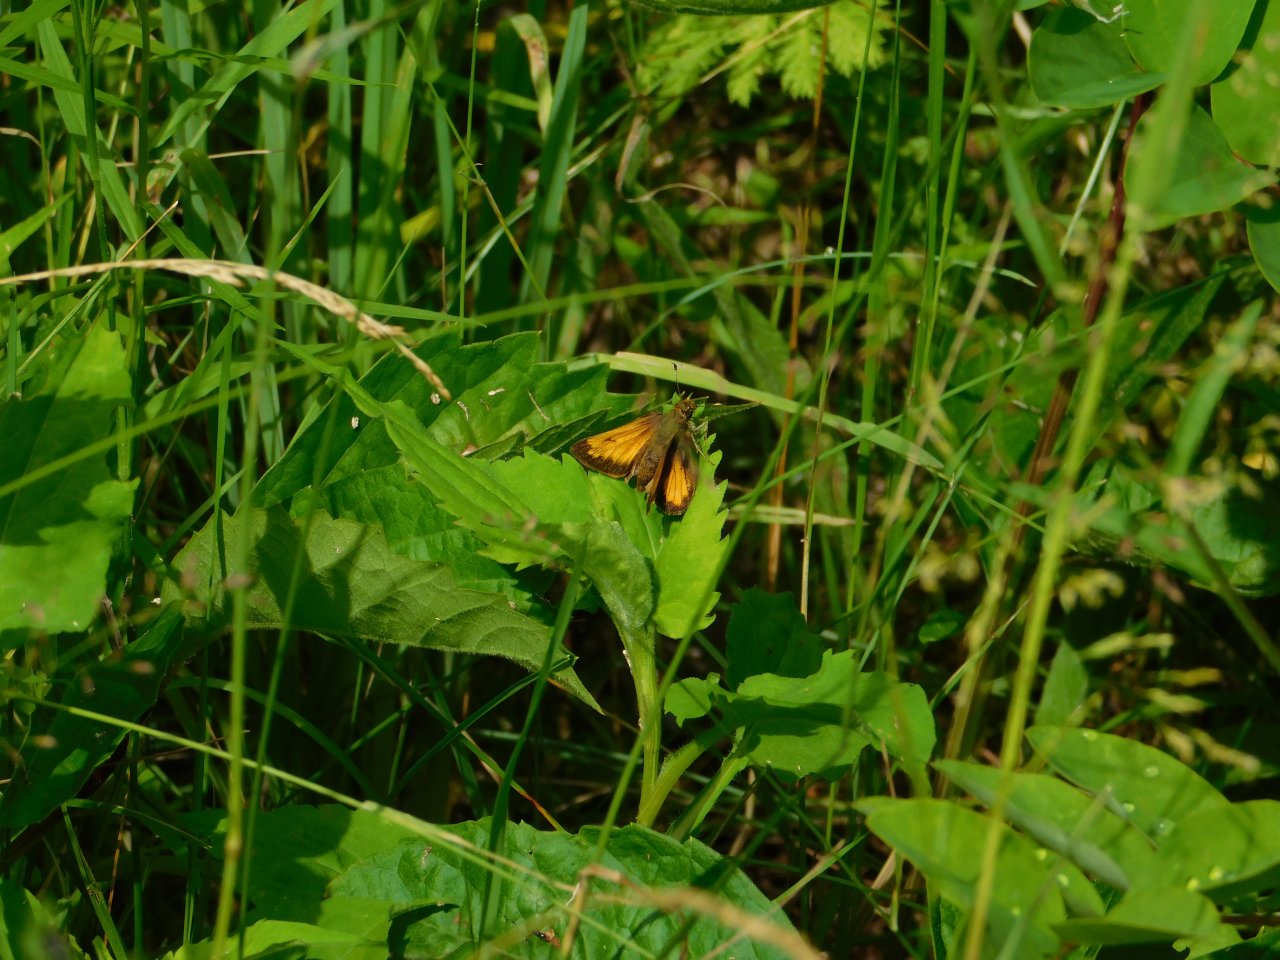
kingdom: Animalia
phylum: Arthropoda
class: Insecta
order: Lepidoptera
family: Hesperiidae
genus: Lon
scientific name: Lon hobomok
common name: Hobomok Skipper
